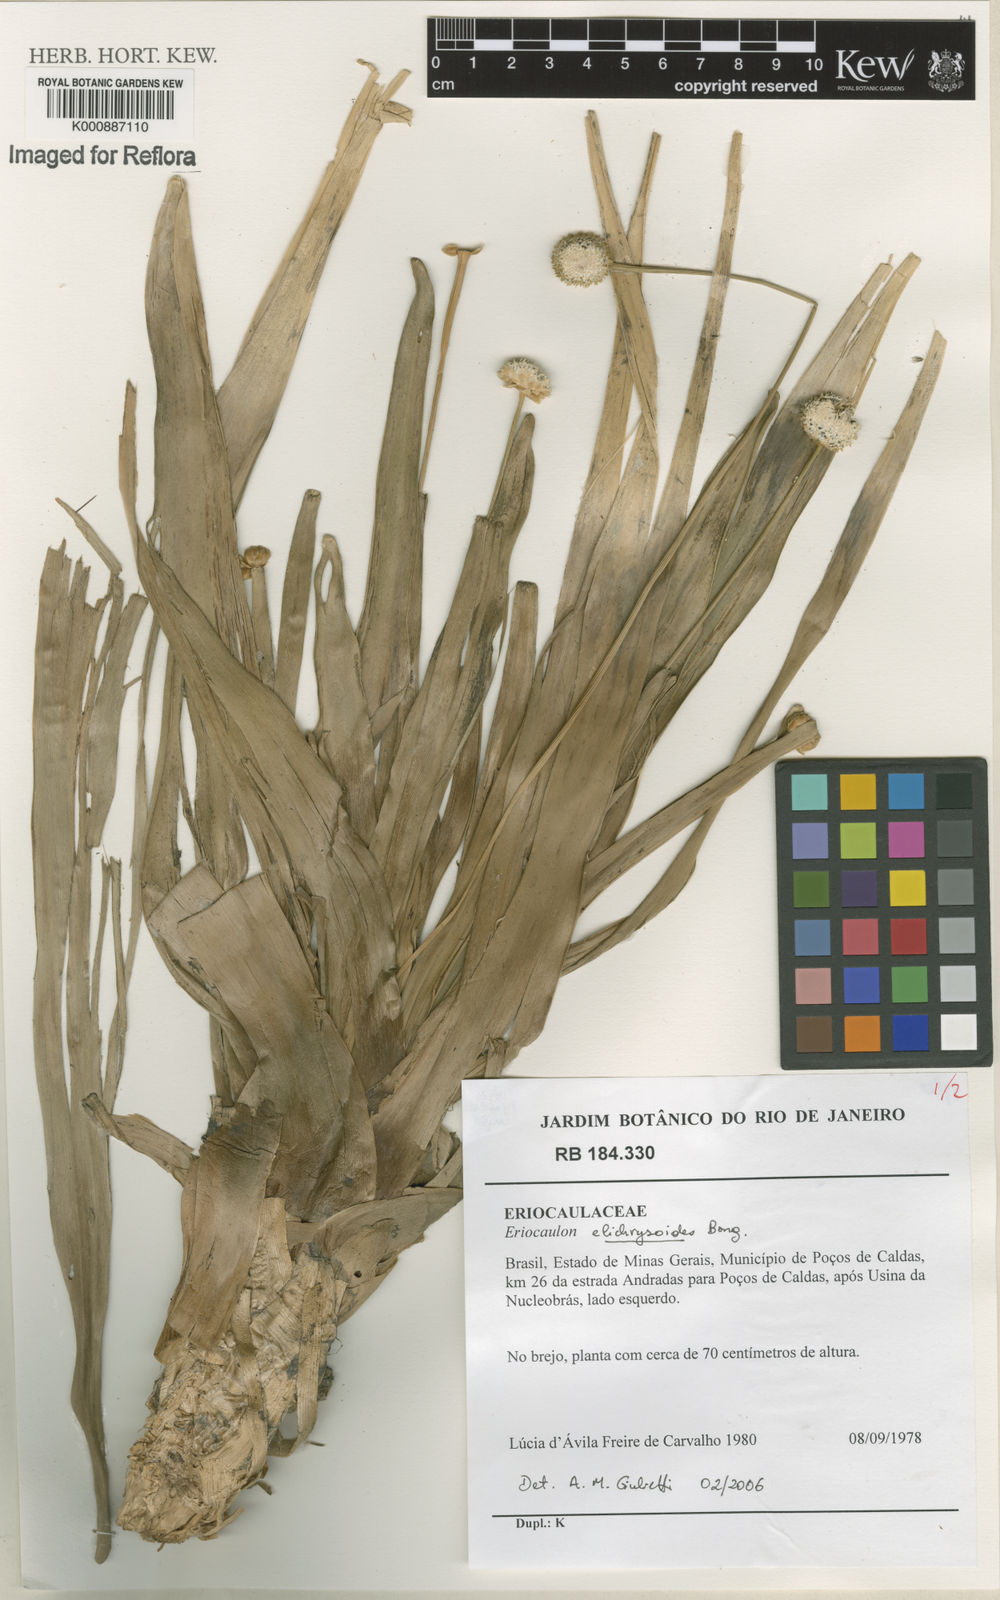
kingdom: Plantae
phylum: Tracheophyta
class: Liliopsida
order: Poales
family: Eriocaulaceae
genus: Paepalanthus
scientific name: Paepalanthus elongatus
